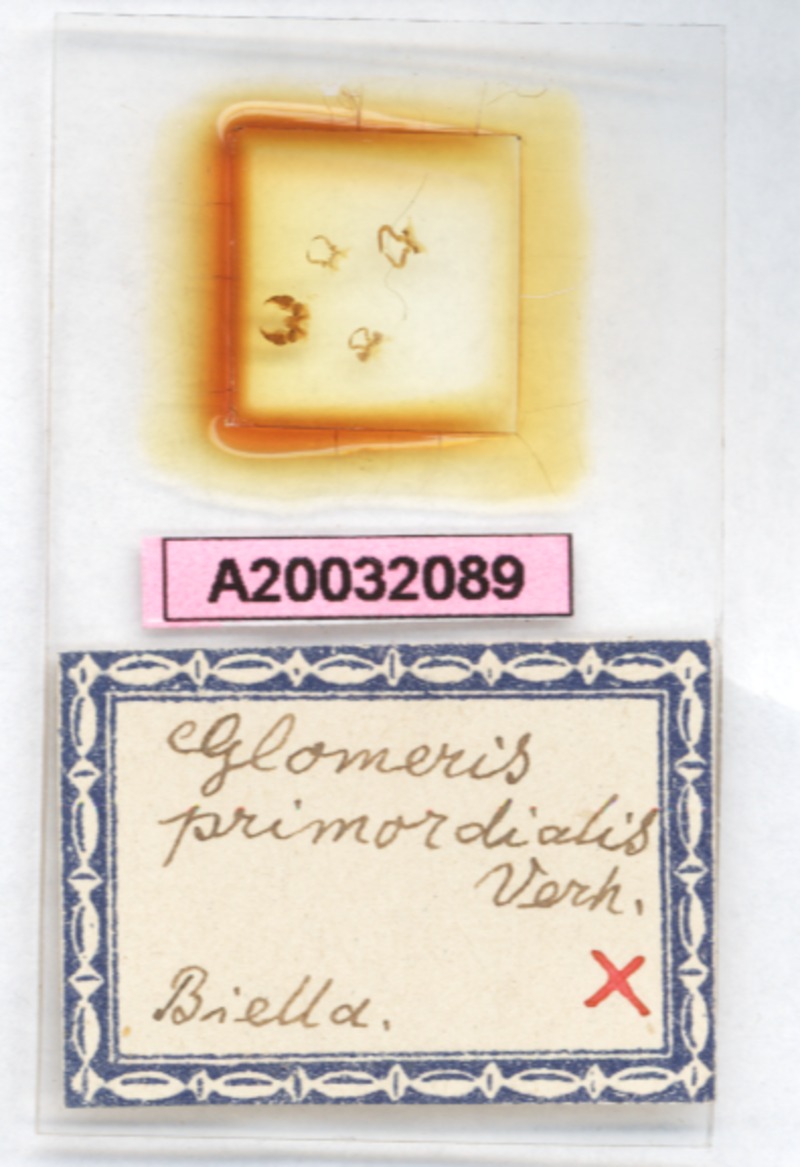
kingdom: Animalia
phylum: Arthropoda
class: Diplopoda
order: Glomerida
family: Glomeridae
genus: Glomeris
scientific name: Glomeris primordialis
